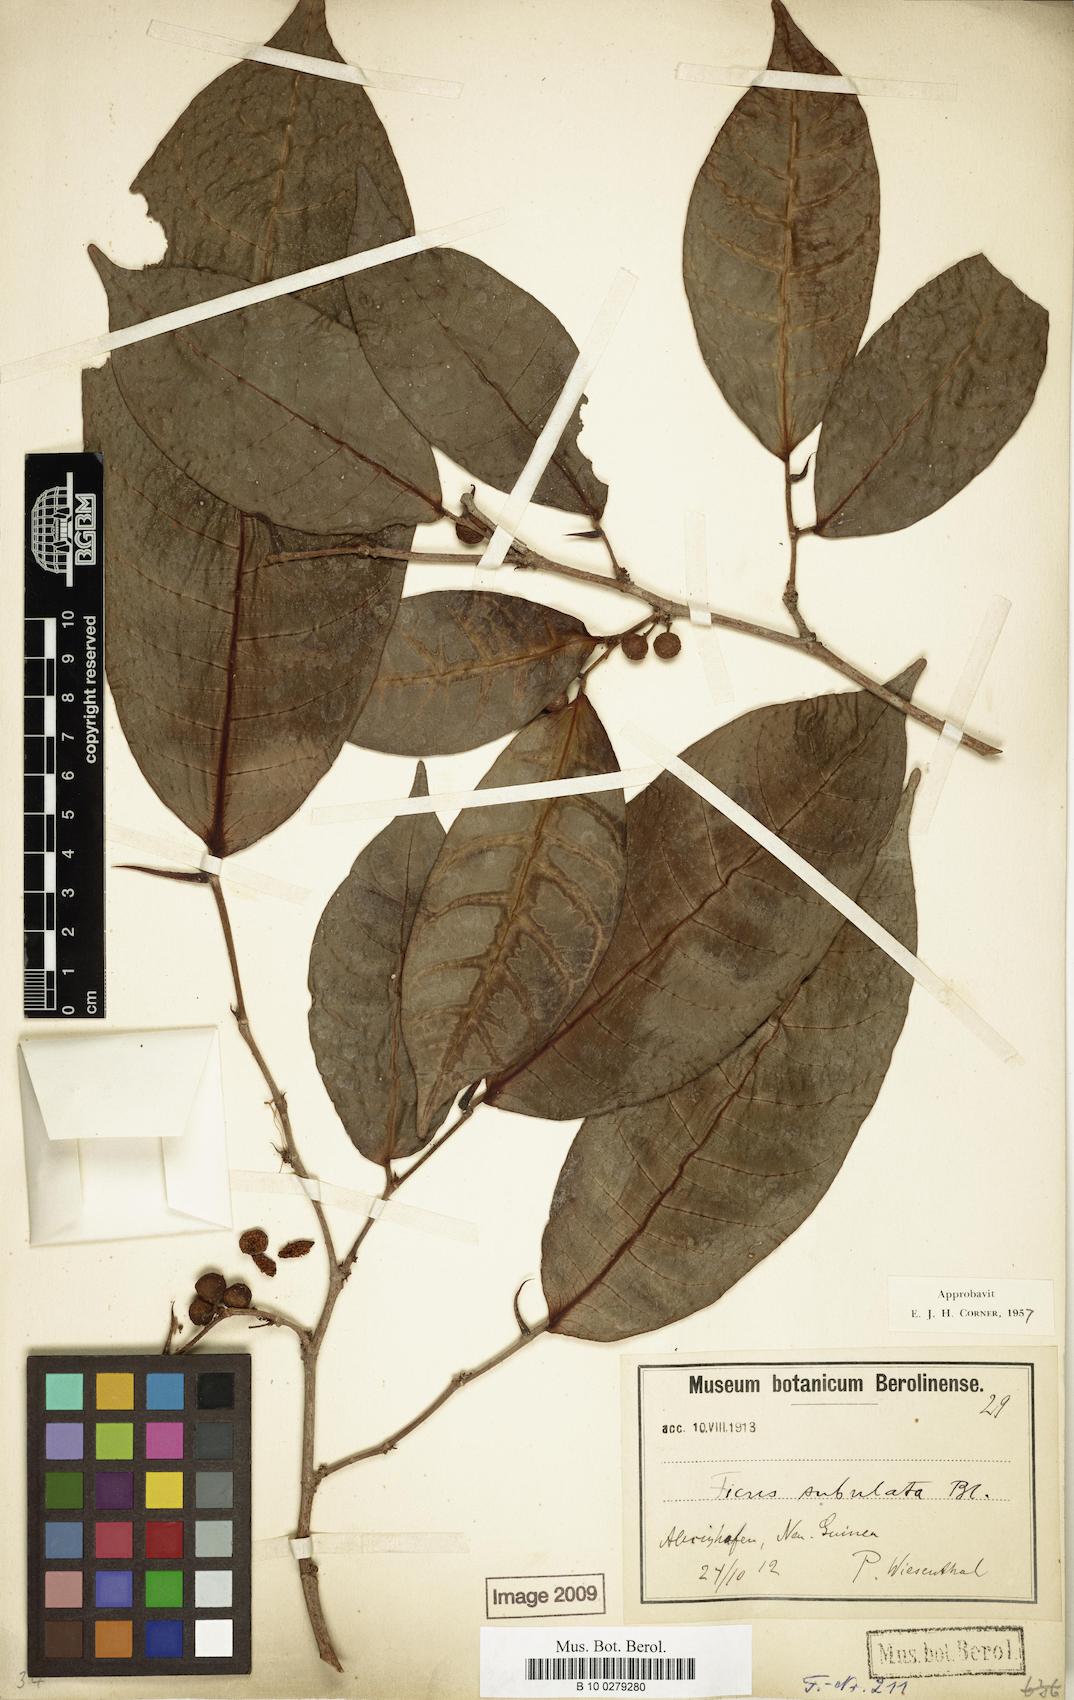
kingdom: Plantae
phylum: Tracheophyta
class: Magnoliopsida
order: Rosales
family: Moraceae
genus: Ficus
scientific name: Ficus subulata
